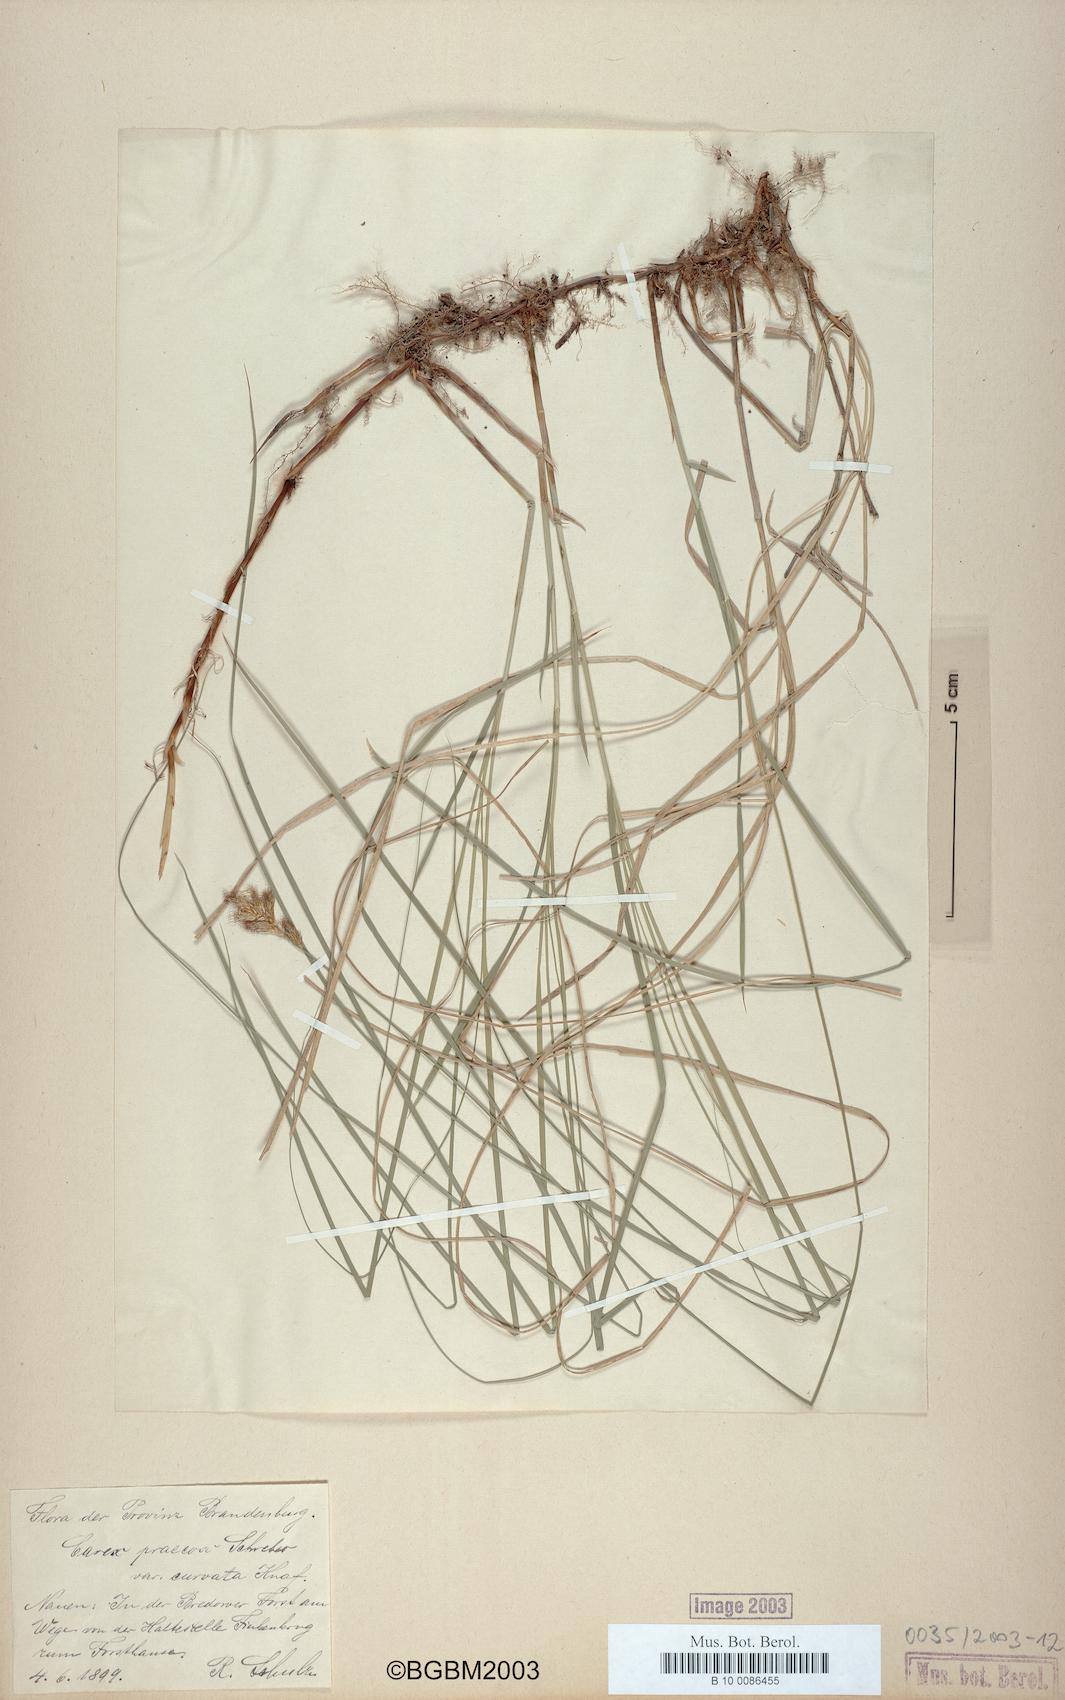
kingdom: Plantae
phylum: Tracheophyta
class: Liliopsida
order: Poales
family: Cyperaceae
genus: Carex
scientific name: Carex curvata
